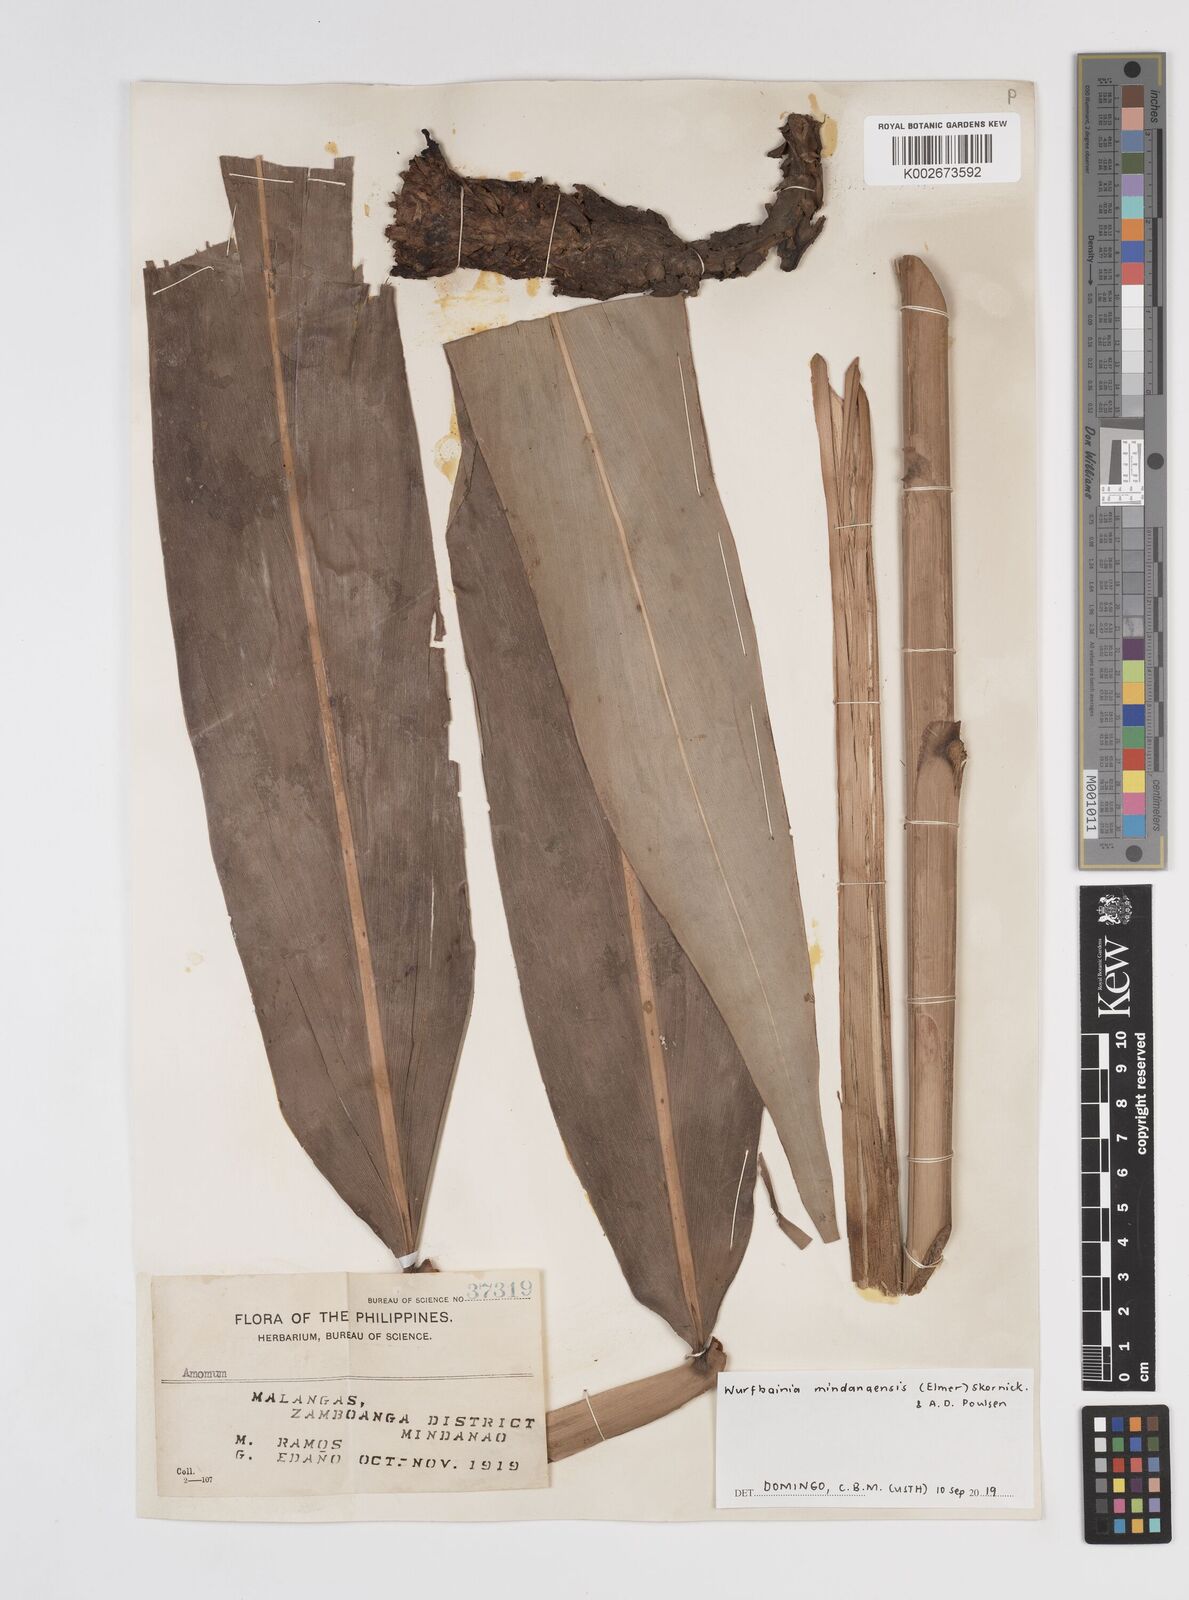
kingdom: Plantae
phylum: Tracheophyta
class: Liliopsida
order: Zingiberales
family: Zingiberaceae
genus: Wurfbainia
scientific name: Wurfbainia mindanaensis
